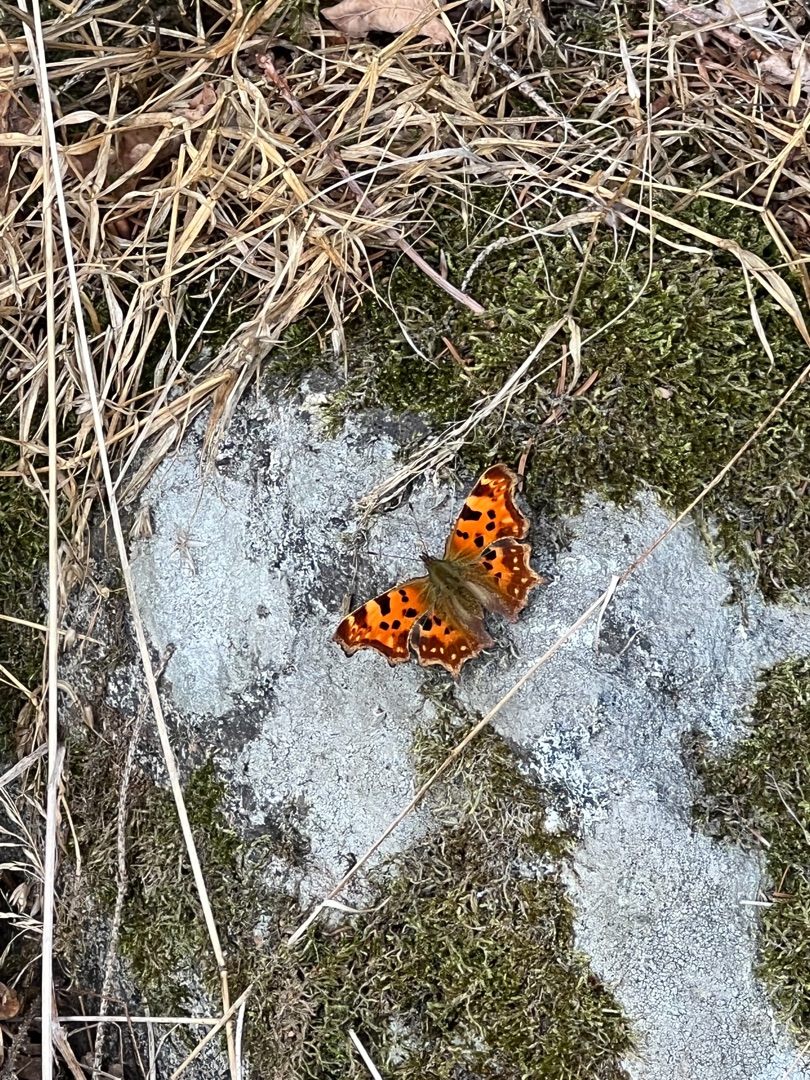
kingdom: Animalia
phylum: Arthropoda
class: Insecta
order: Lepidoptera
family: Nymphalidae
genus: Polygonia
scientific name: Polygonia c-album
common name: Det hvide C
